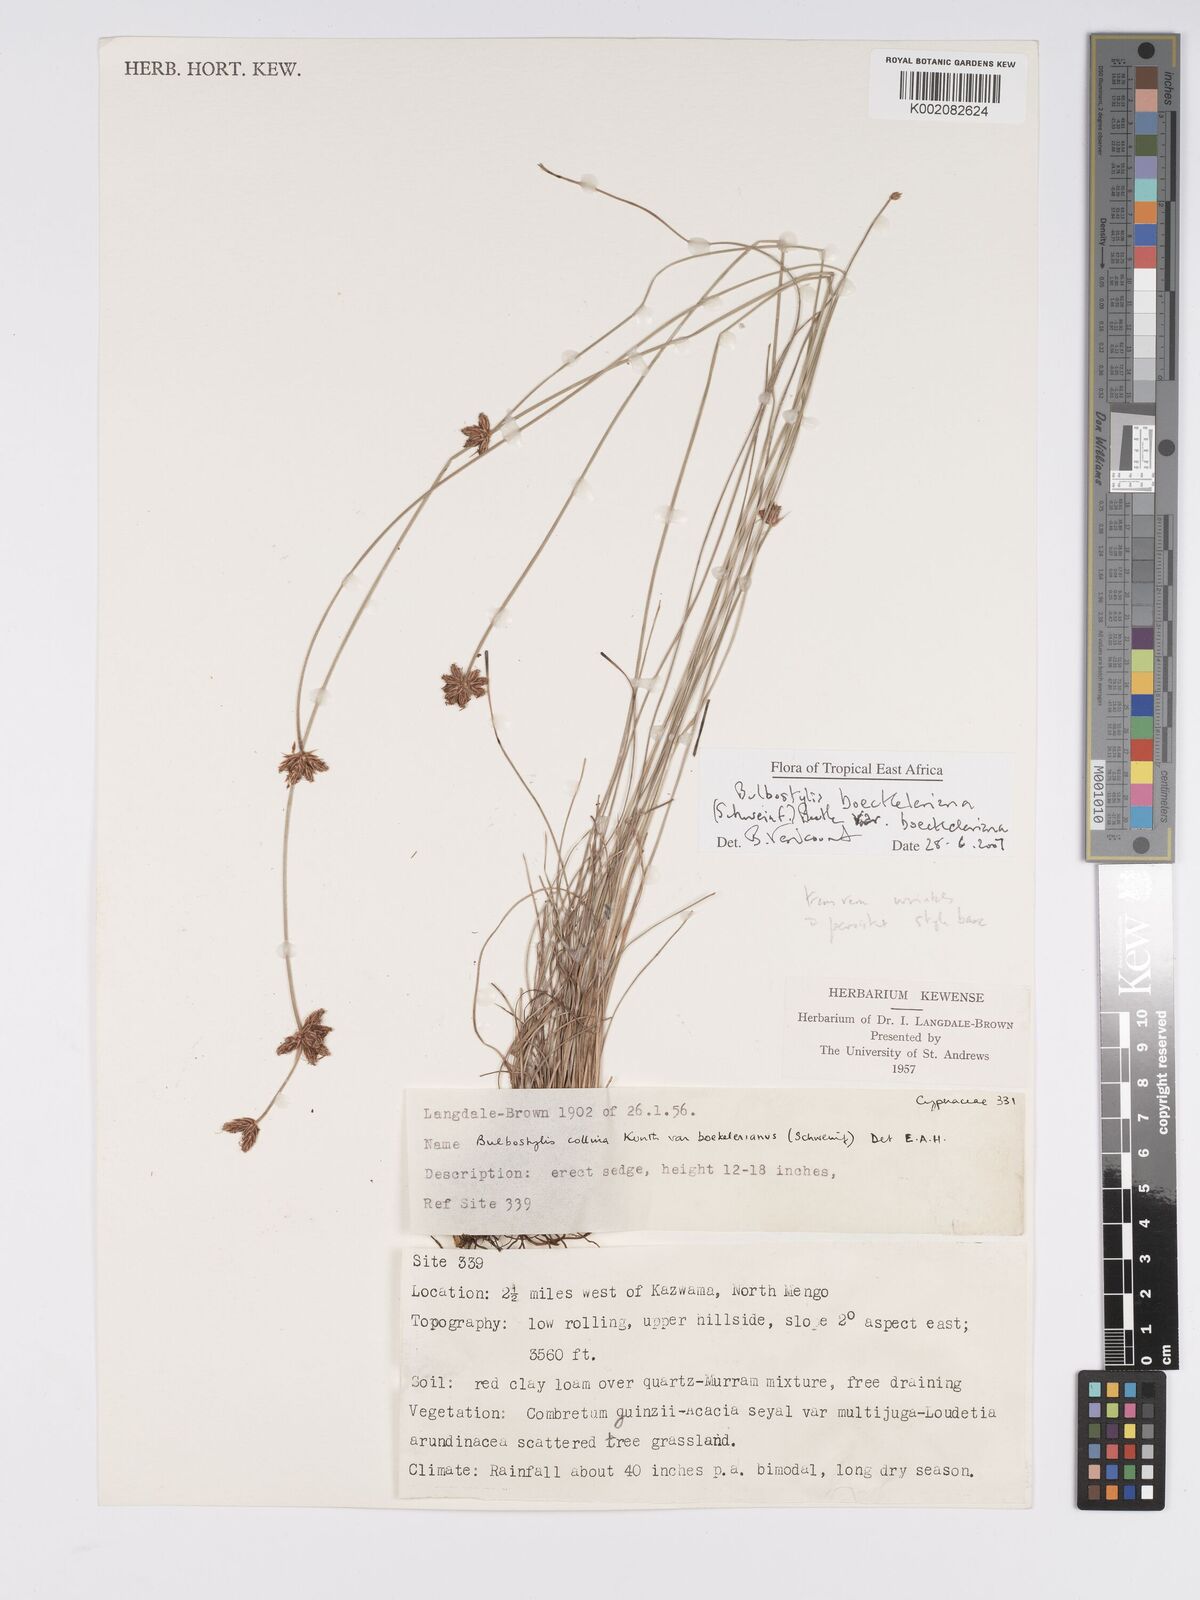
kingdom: Plantae
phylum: Tracheophyta
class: Liliopsida
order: Poales
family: Cyperaceae
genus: Bulbostylis
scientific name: Bulbostylis boeckeleriana
